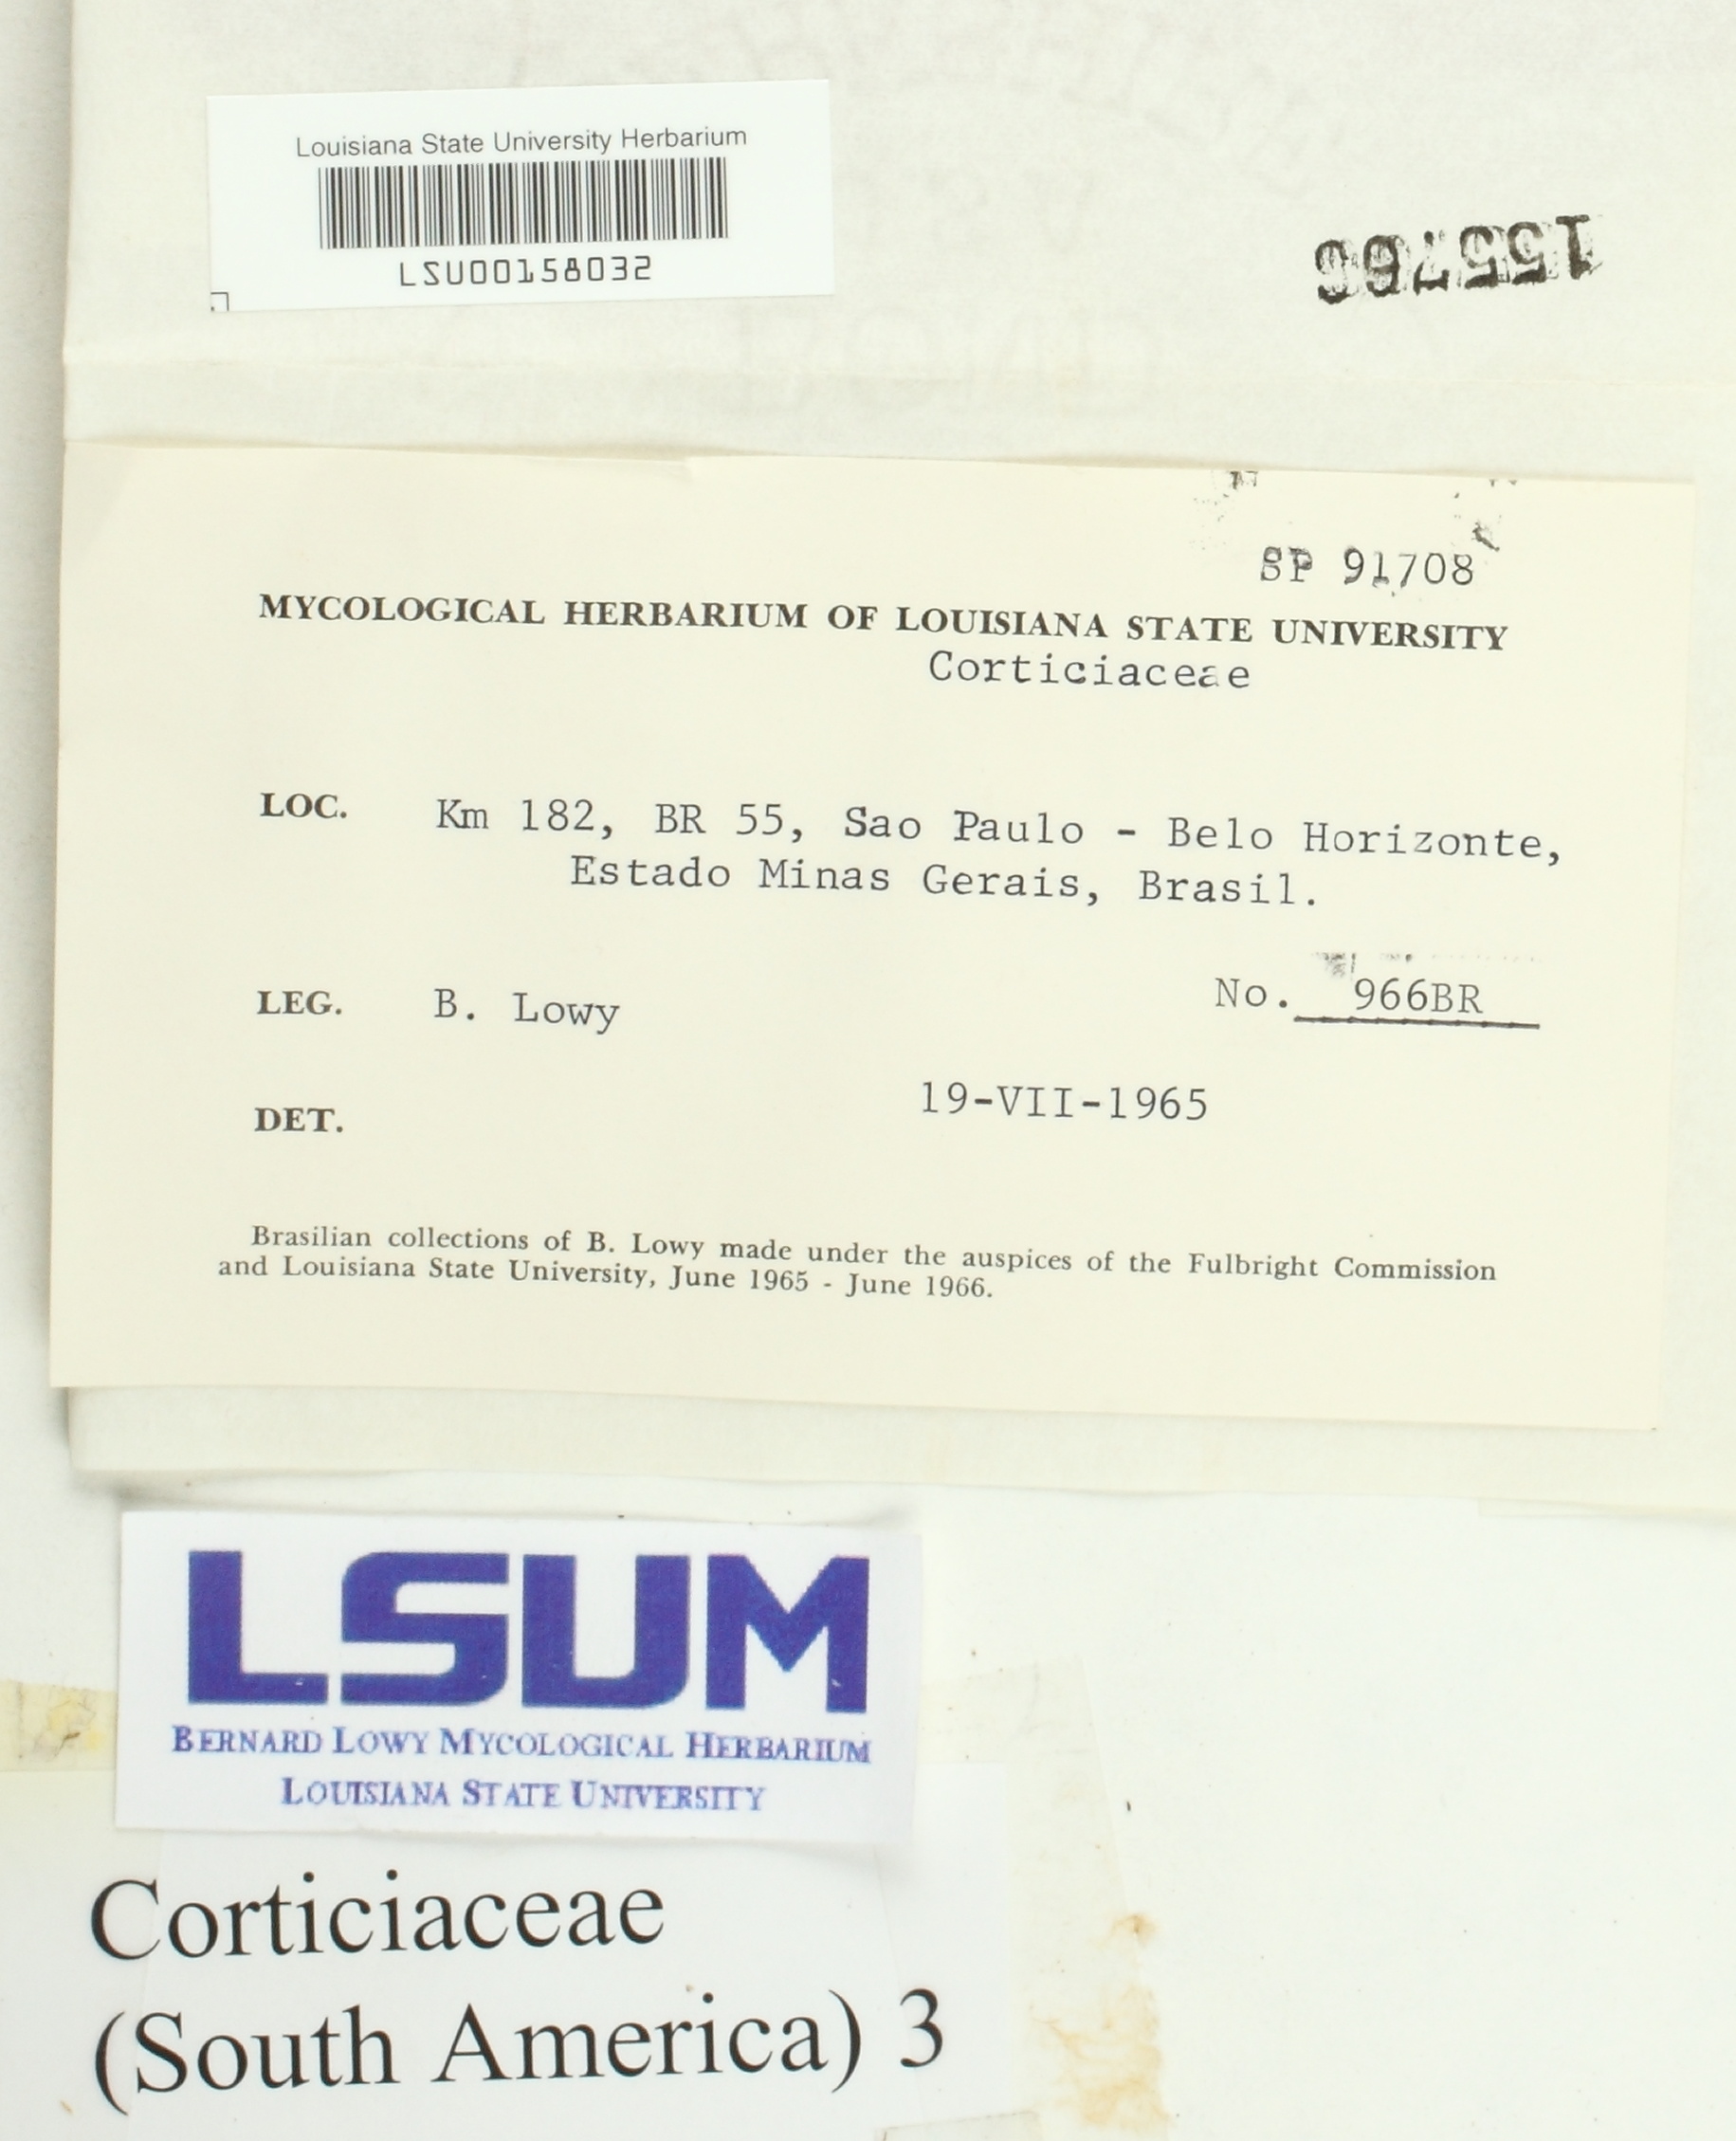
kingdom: Fungi
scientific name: Fungi
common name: Fungi
